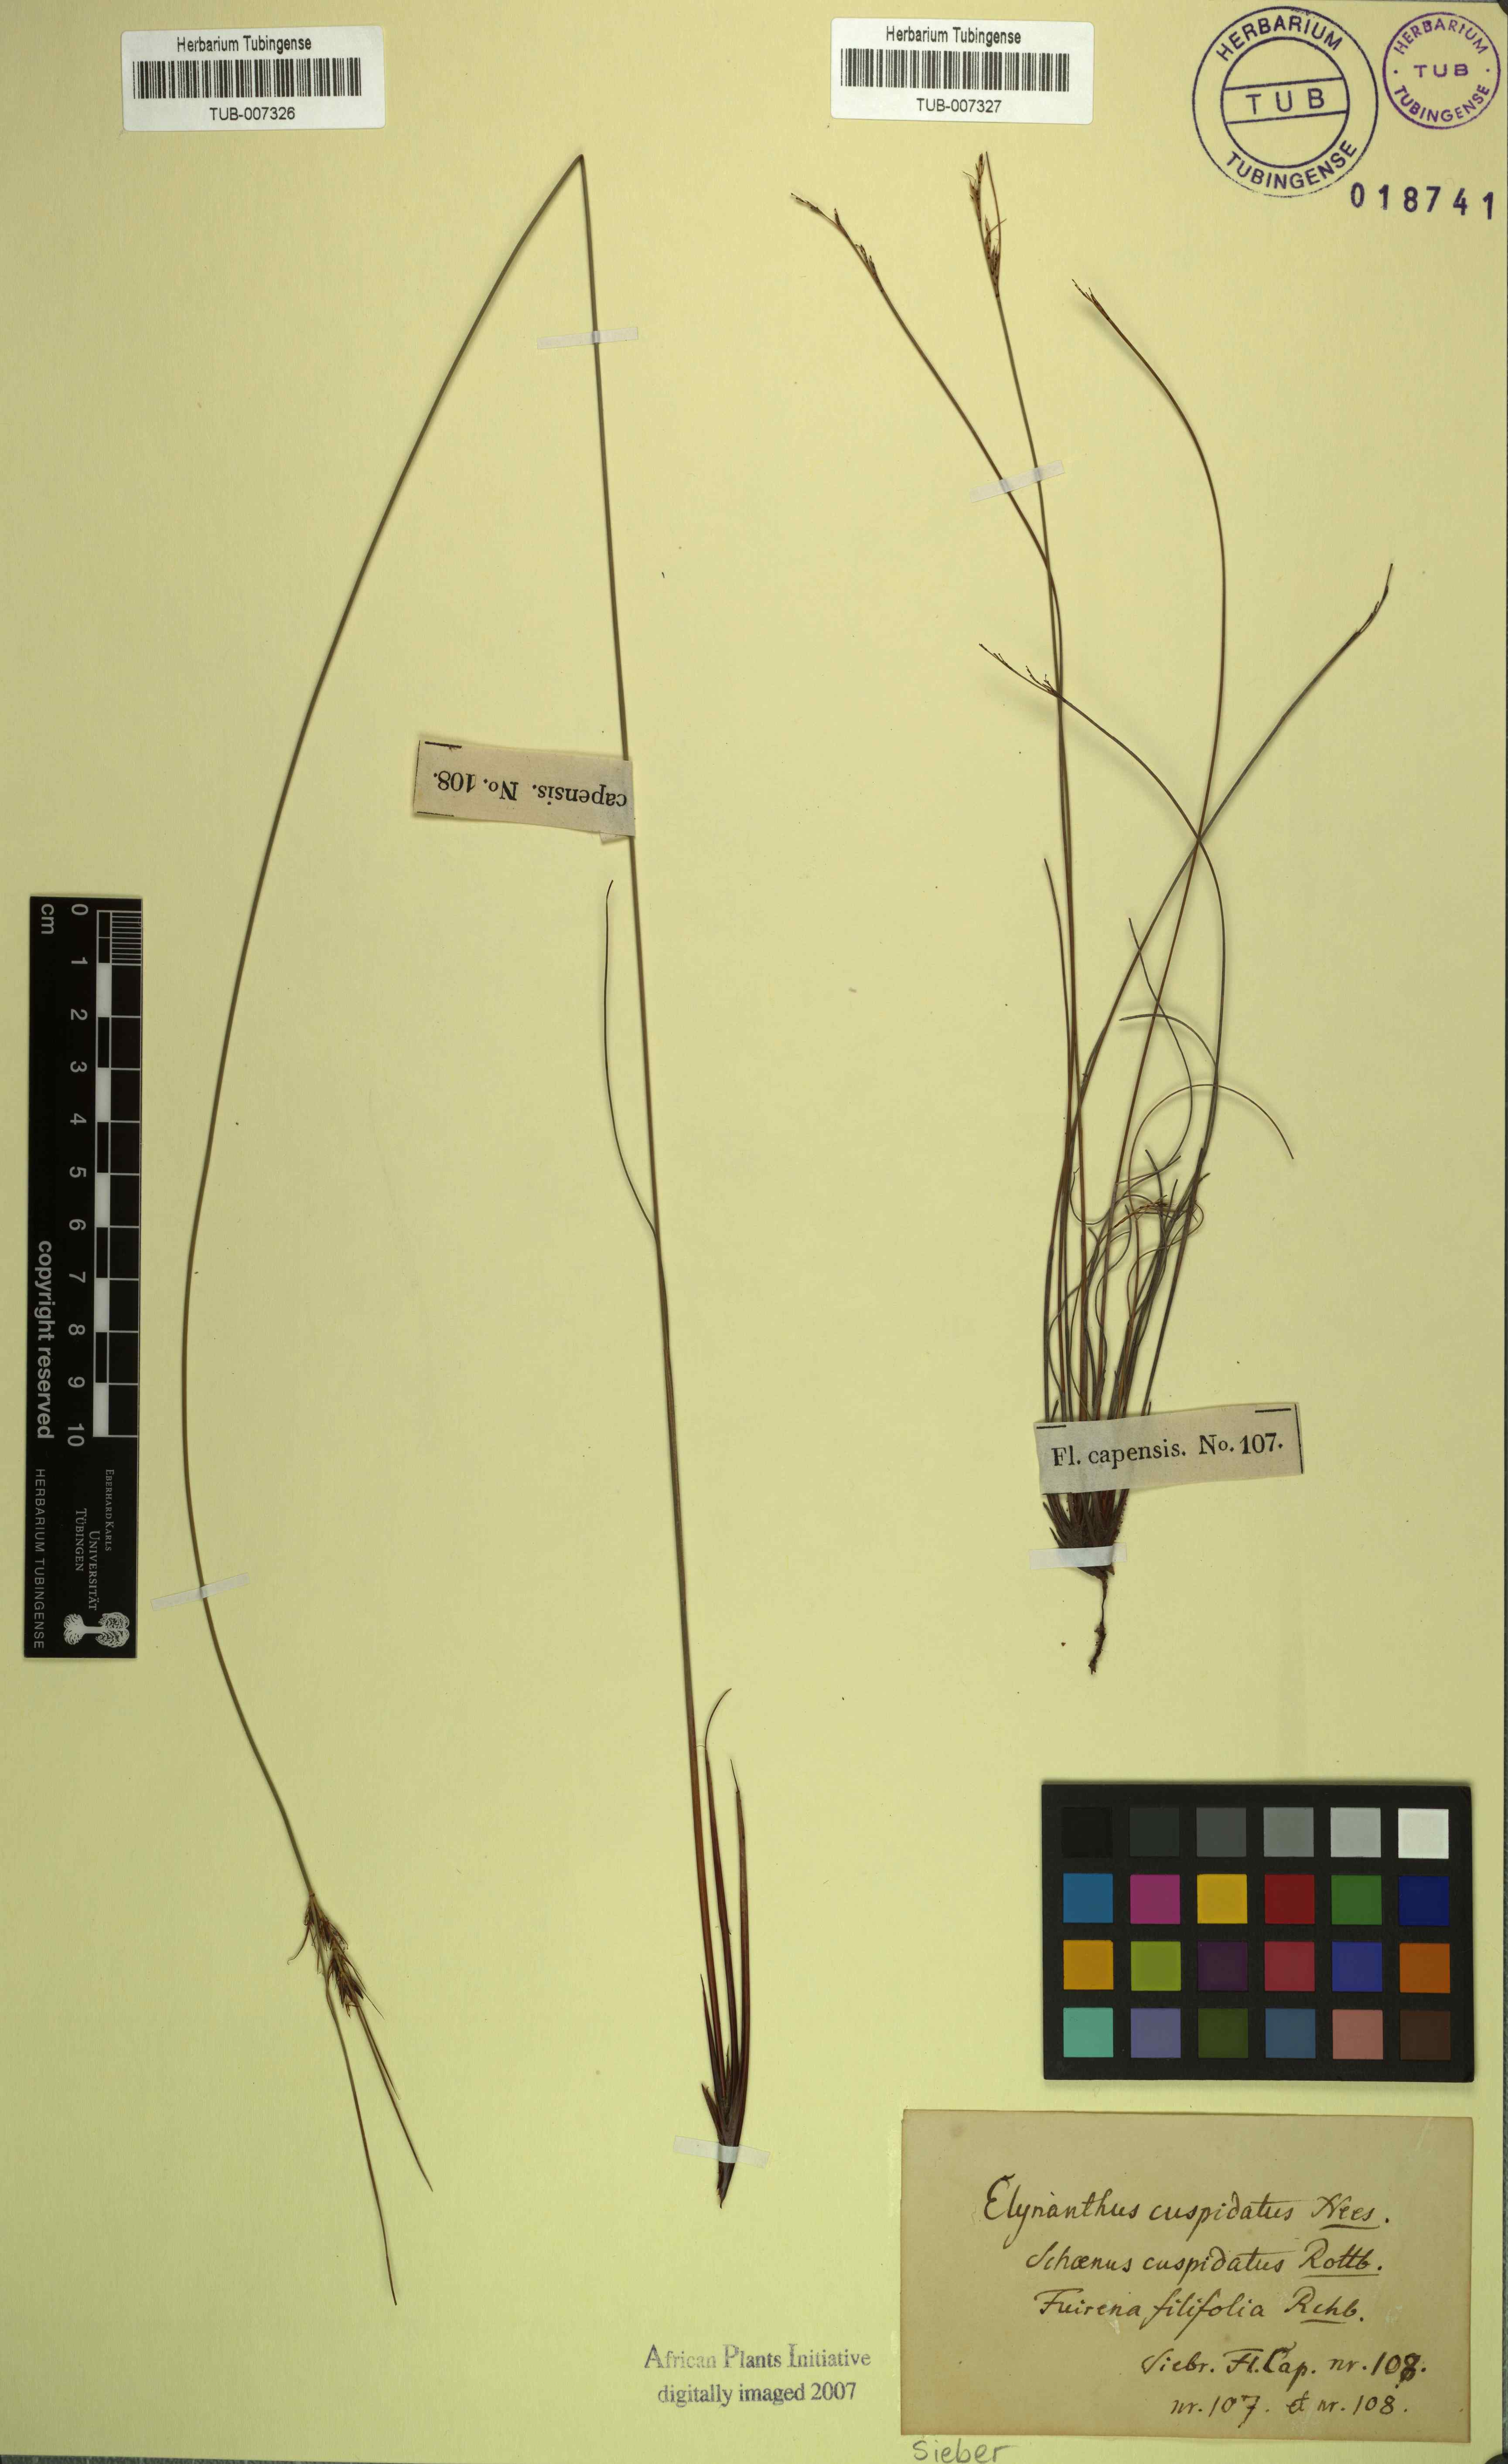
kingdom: Plantae
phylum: Tracheophyta
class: Liliopsida
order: Poales
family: Cyperaceae
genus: Schoenus
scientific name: Schoenus cuspidatus
